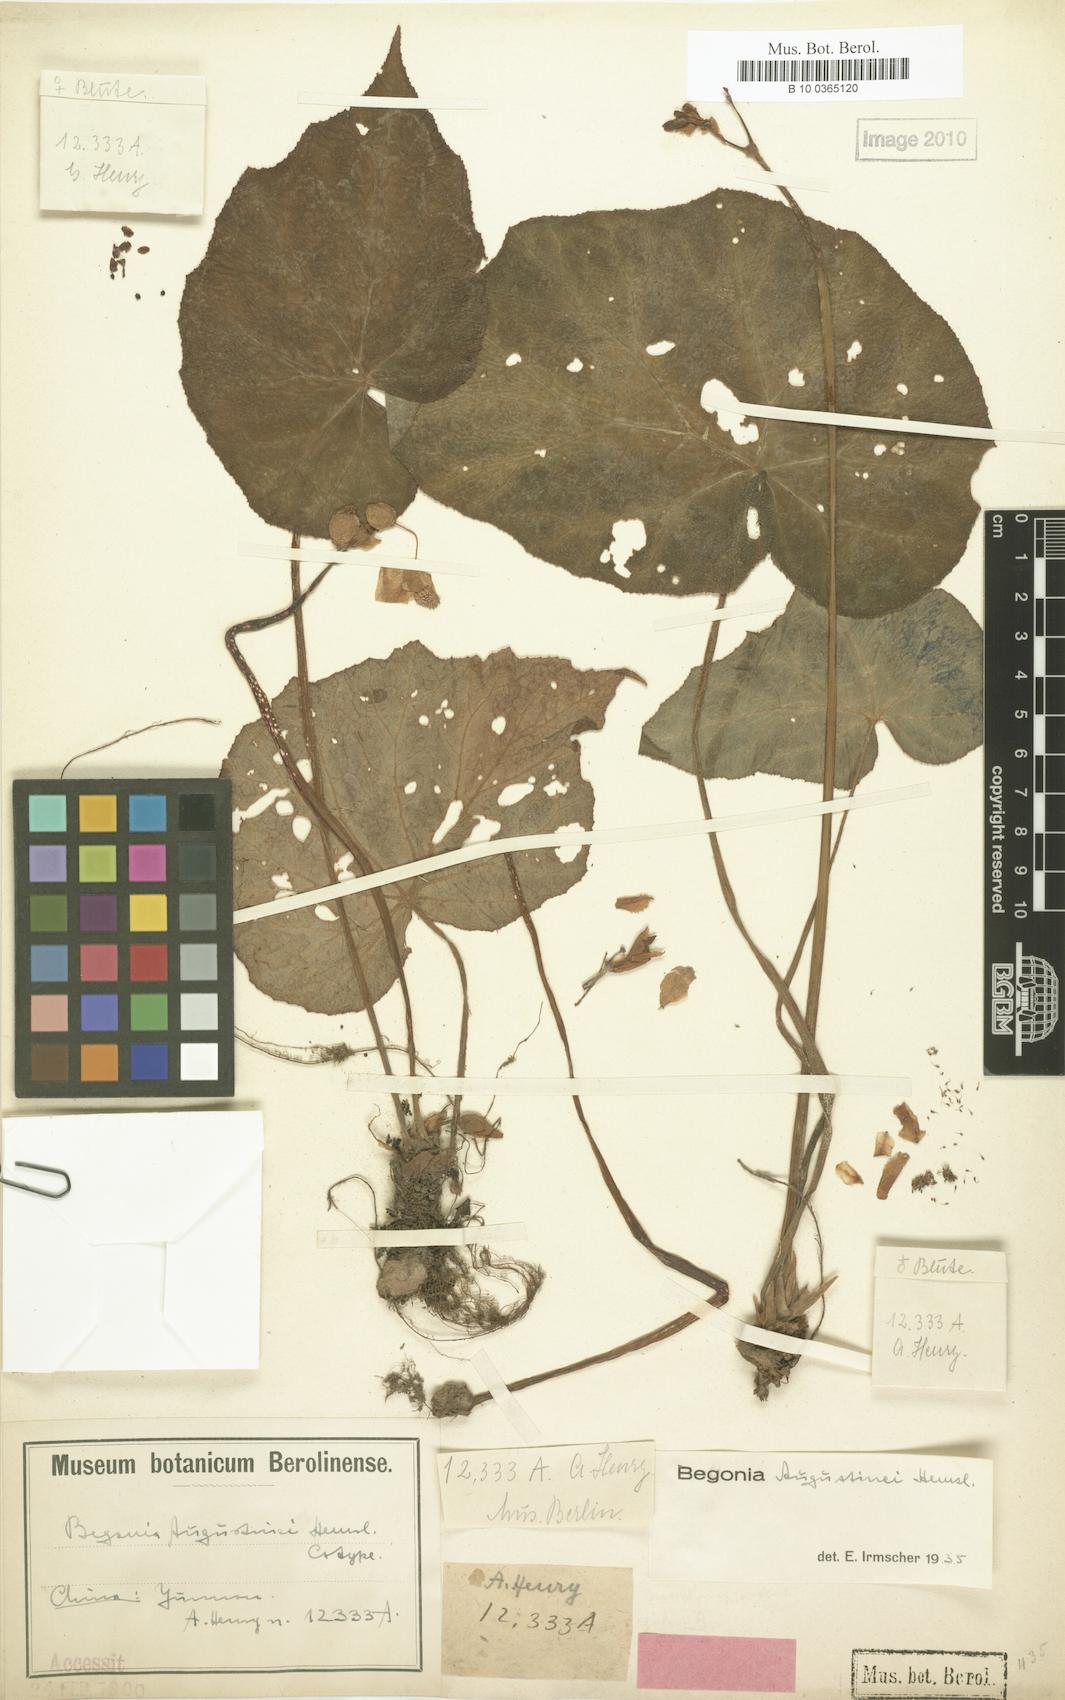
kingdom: Plantae
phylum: Tracheophyta
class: Magnoliopsida
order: Cucurbitales
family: Begoniaceae
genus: Begonia
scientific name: Begonia augustinei
